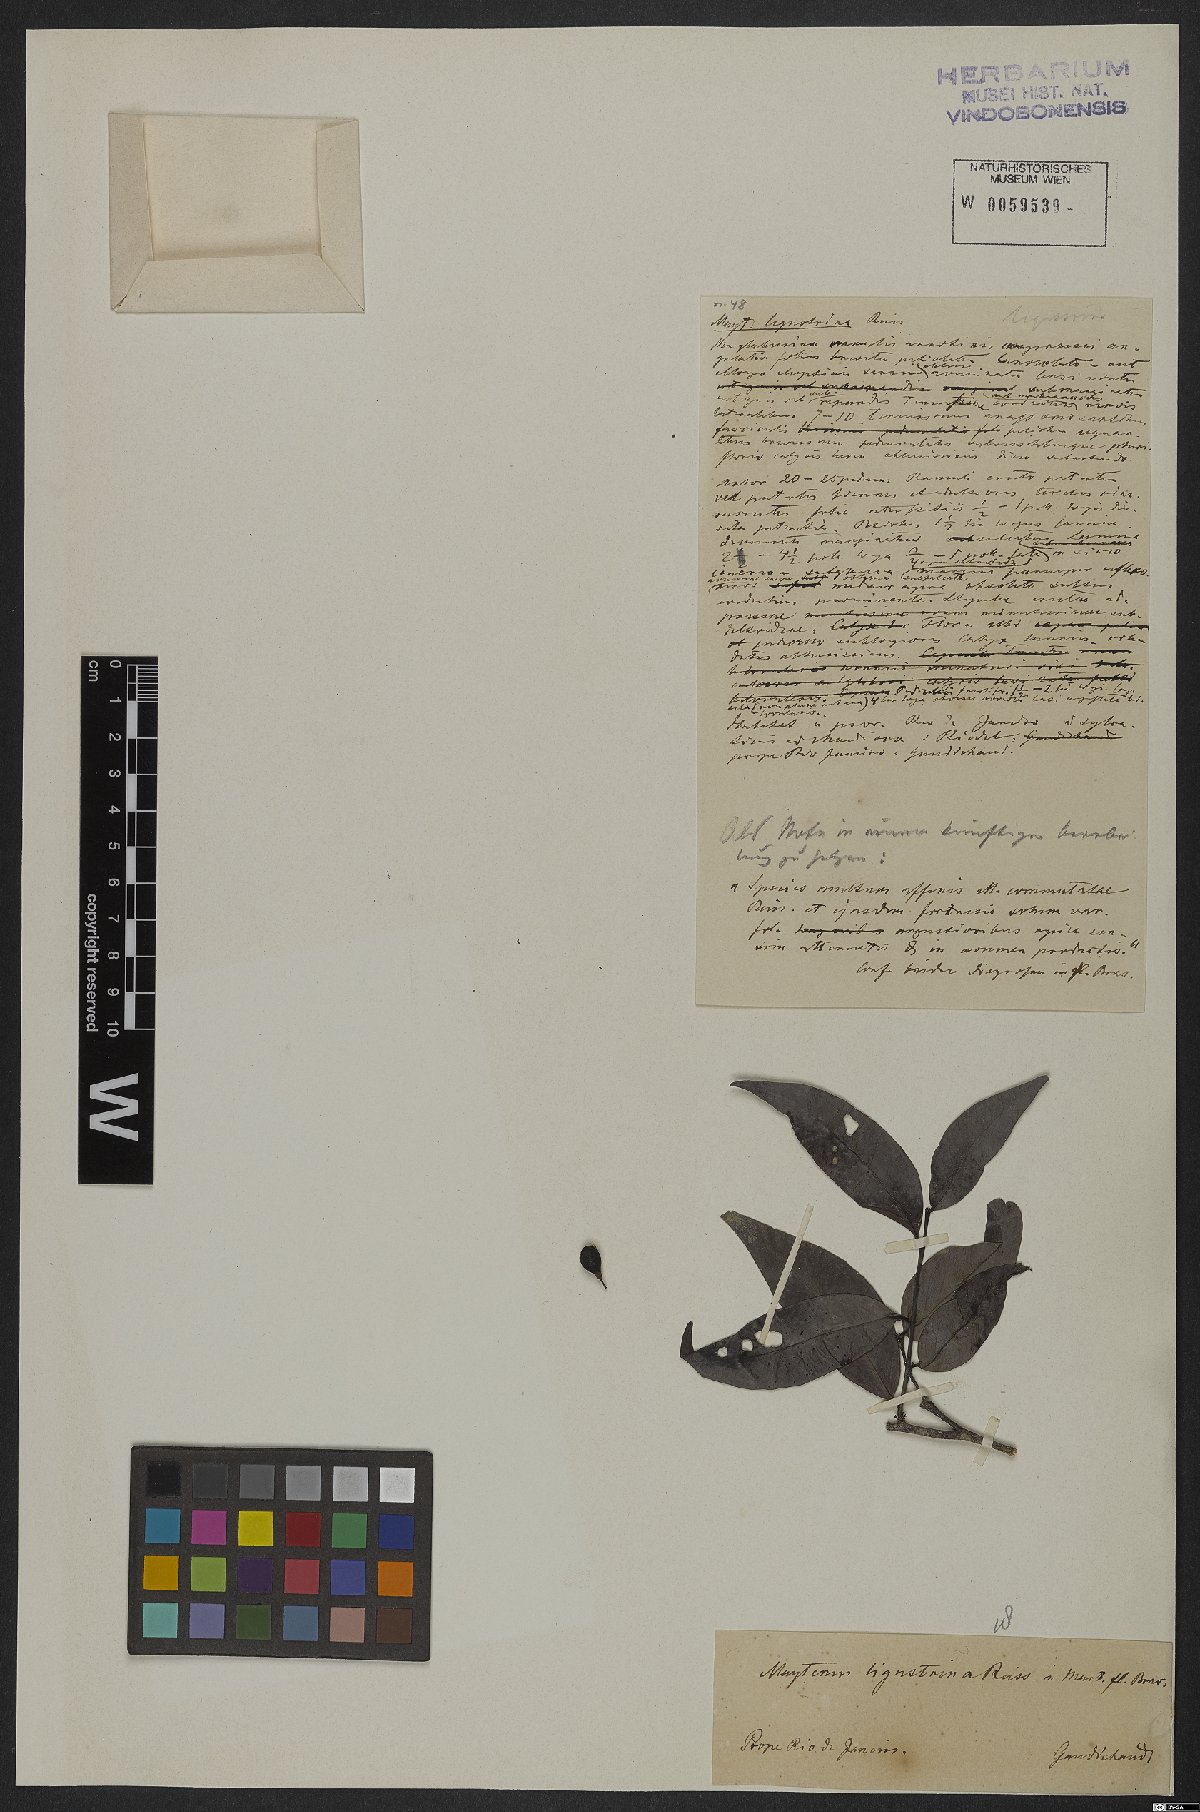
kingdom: Plantae
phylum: Tracheophyta
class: Magnoliopsida
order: Celastrales
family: Celastraceae
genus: Monteverdia
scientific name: Monteverdia brasiliensis
